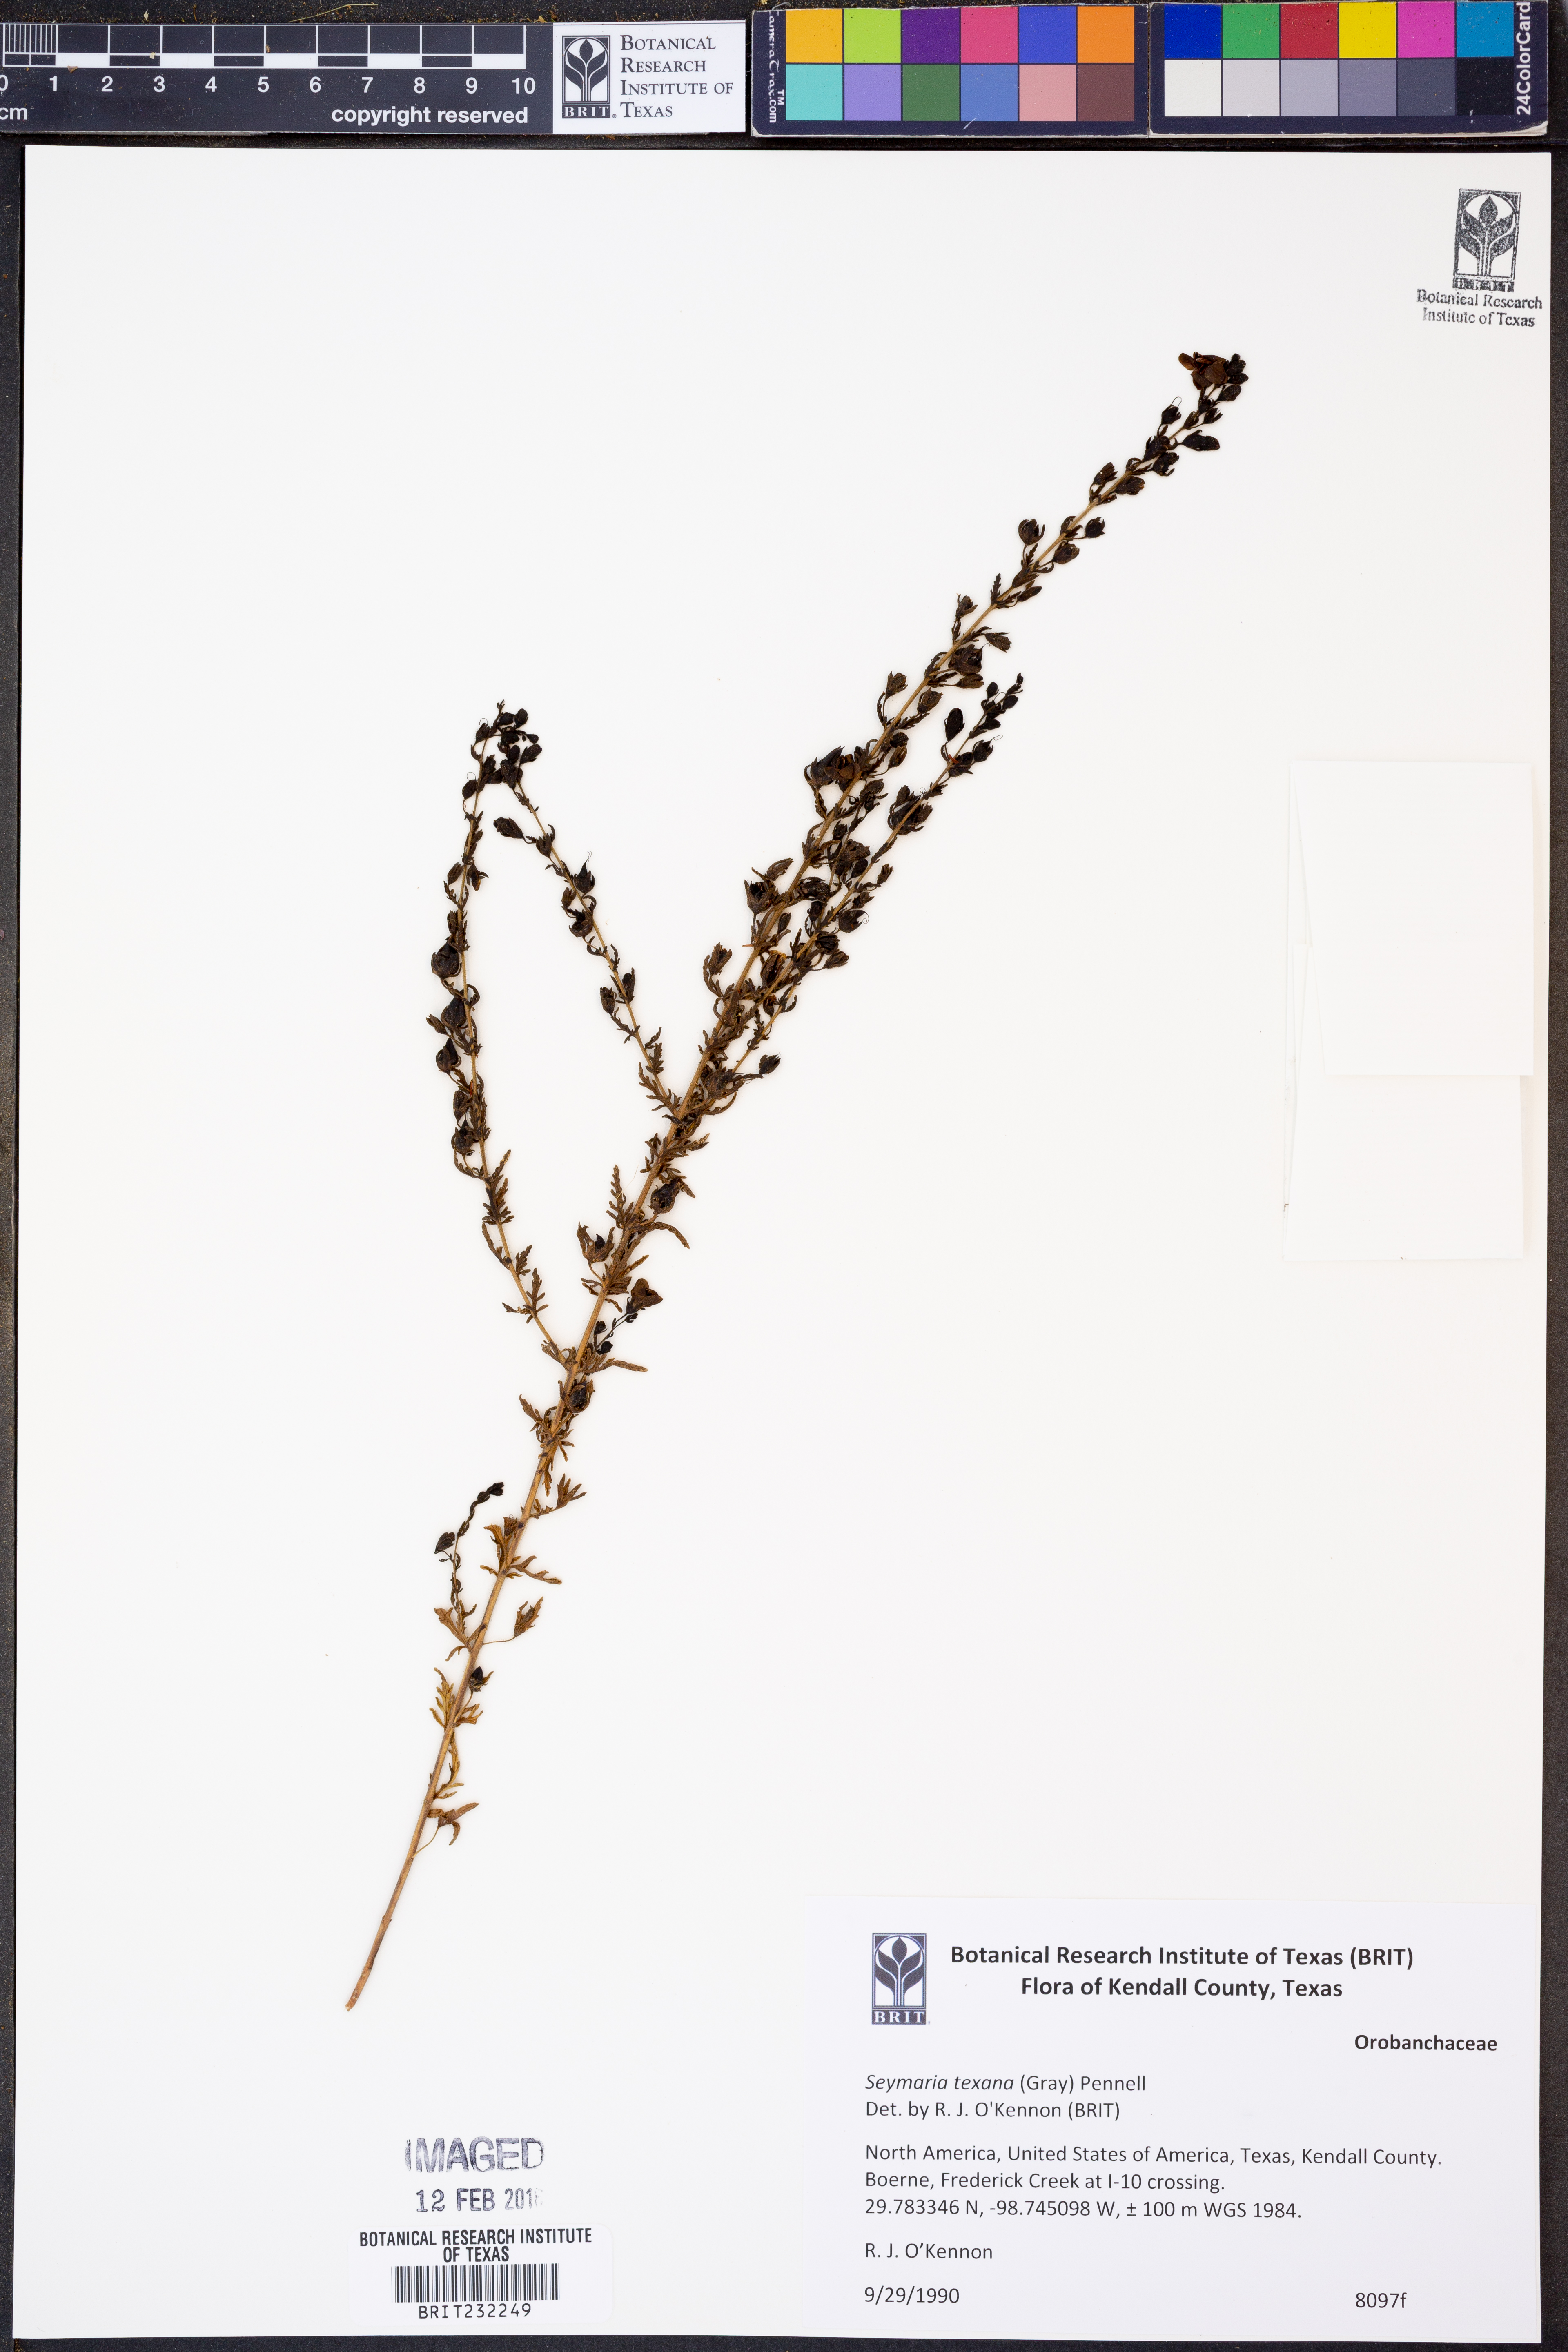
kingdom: Plantae
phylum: Tracheophyta
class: Magnoliopsida
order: Lamiales
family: Orobanchaceae
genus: Seymeria
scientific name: Seymeria bipinnatisecta
